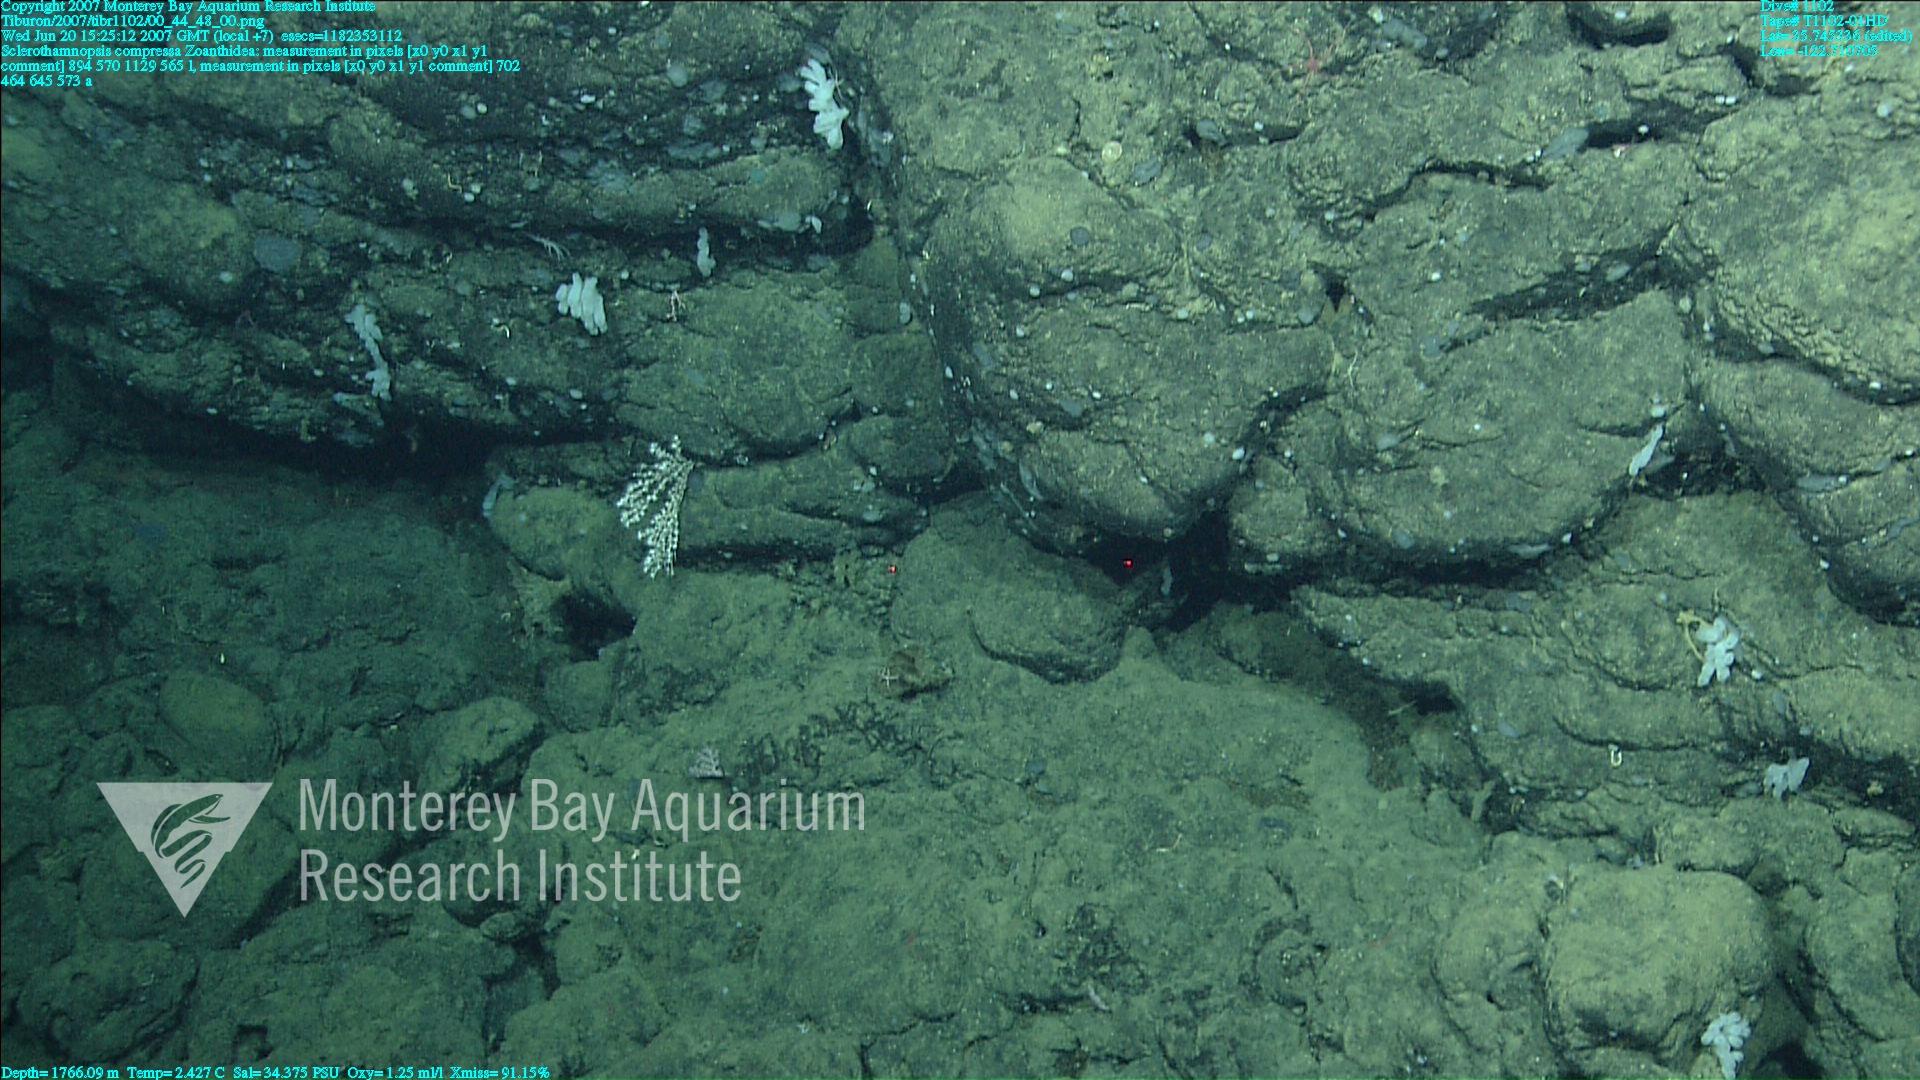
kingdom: Animalia
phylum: Porifera
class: Hexactinellida
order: Sceptrulophora
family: Tretodictyidae
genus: Sclerothamnopsis
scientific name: Sclerothamnopsis compressa
